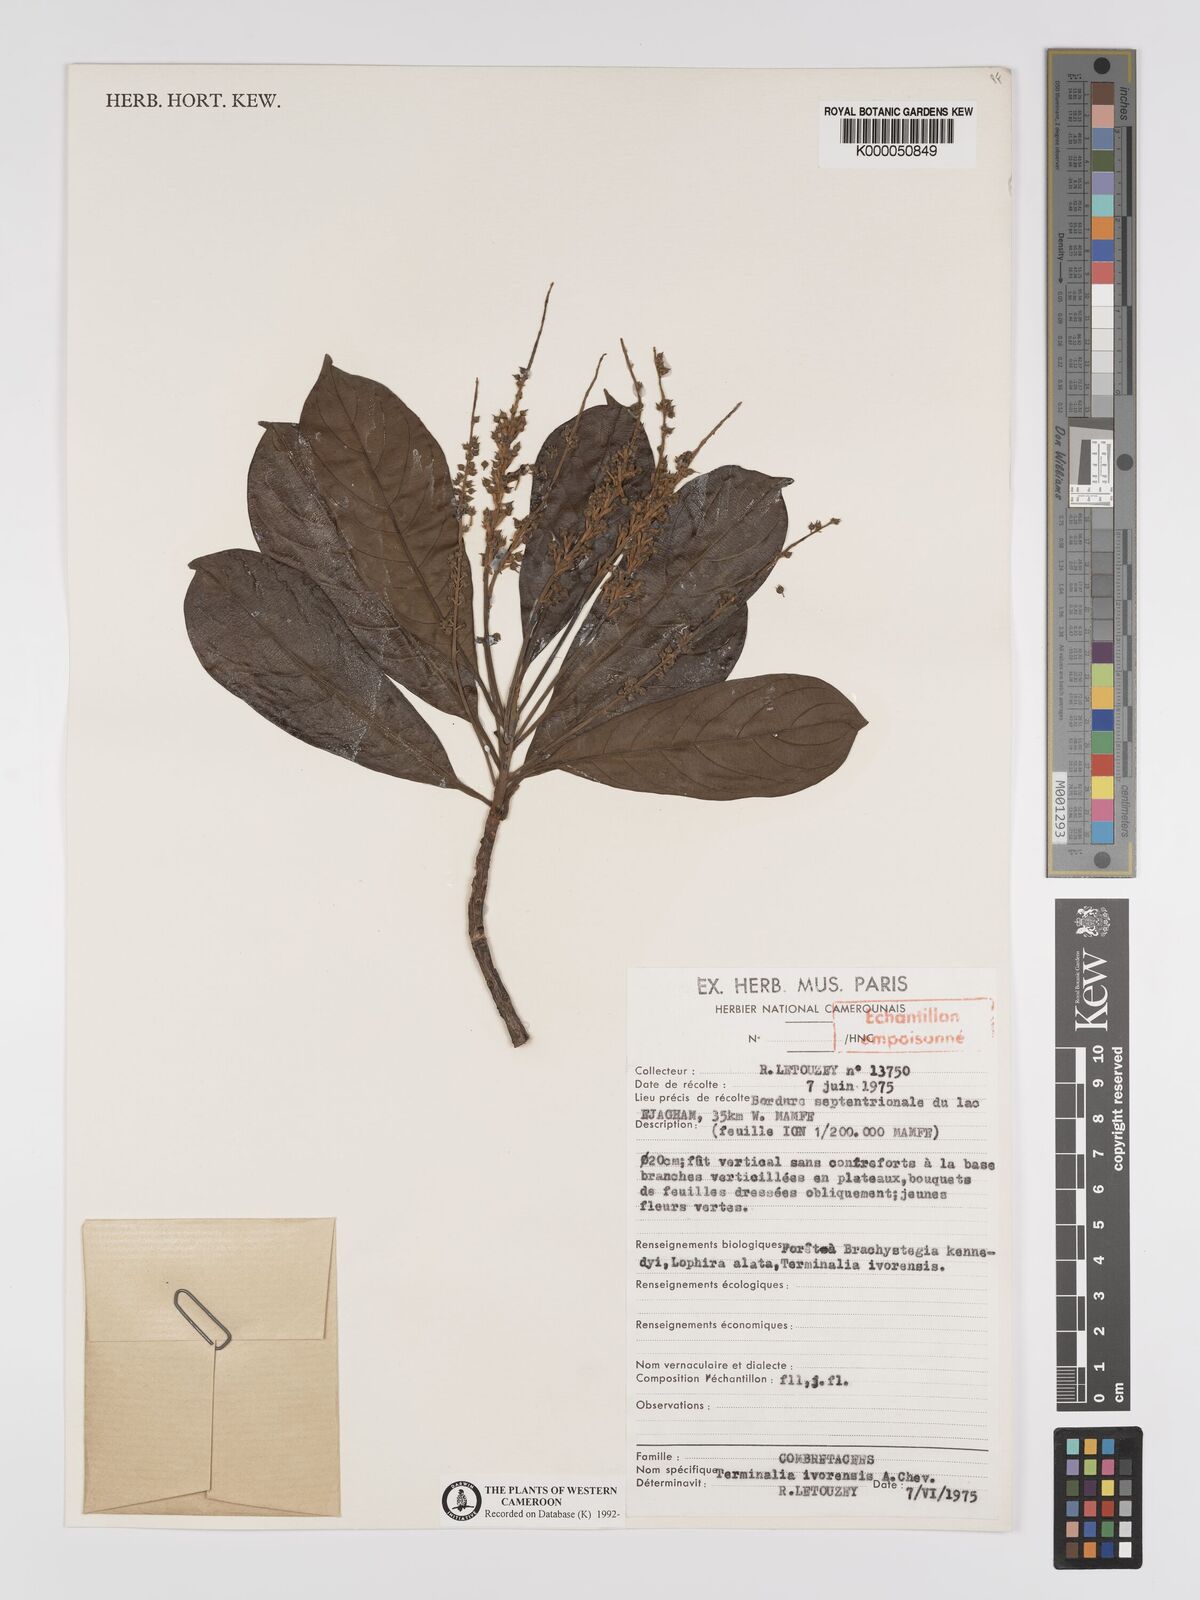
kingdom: Plantae
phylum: Tracheophyta
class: Magnoliopsida
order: Myrtales
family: Combretaceae
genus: Terminalia
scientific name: Terminalia ivorensis
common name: Black afara
